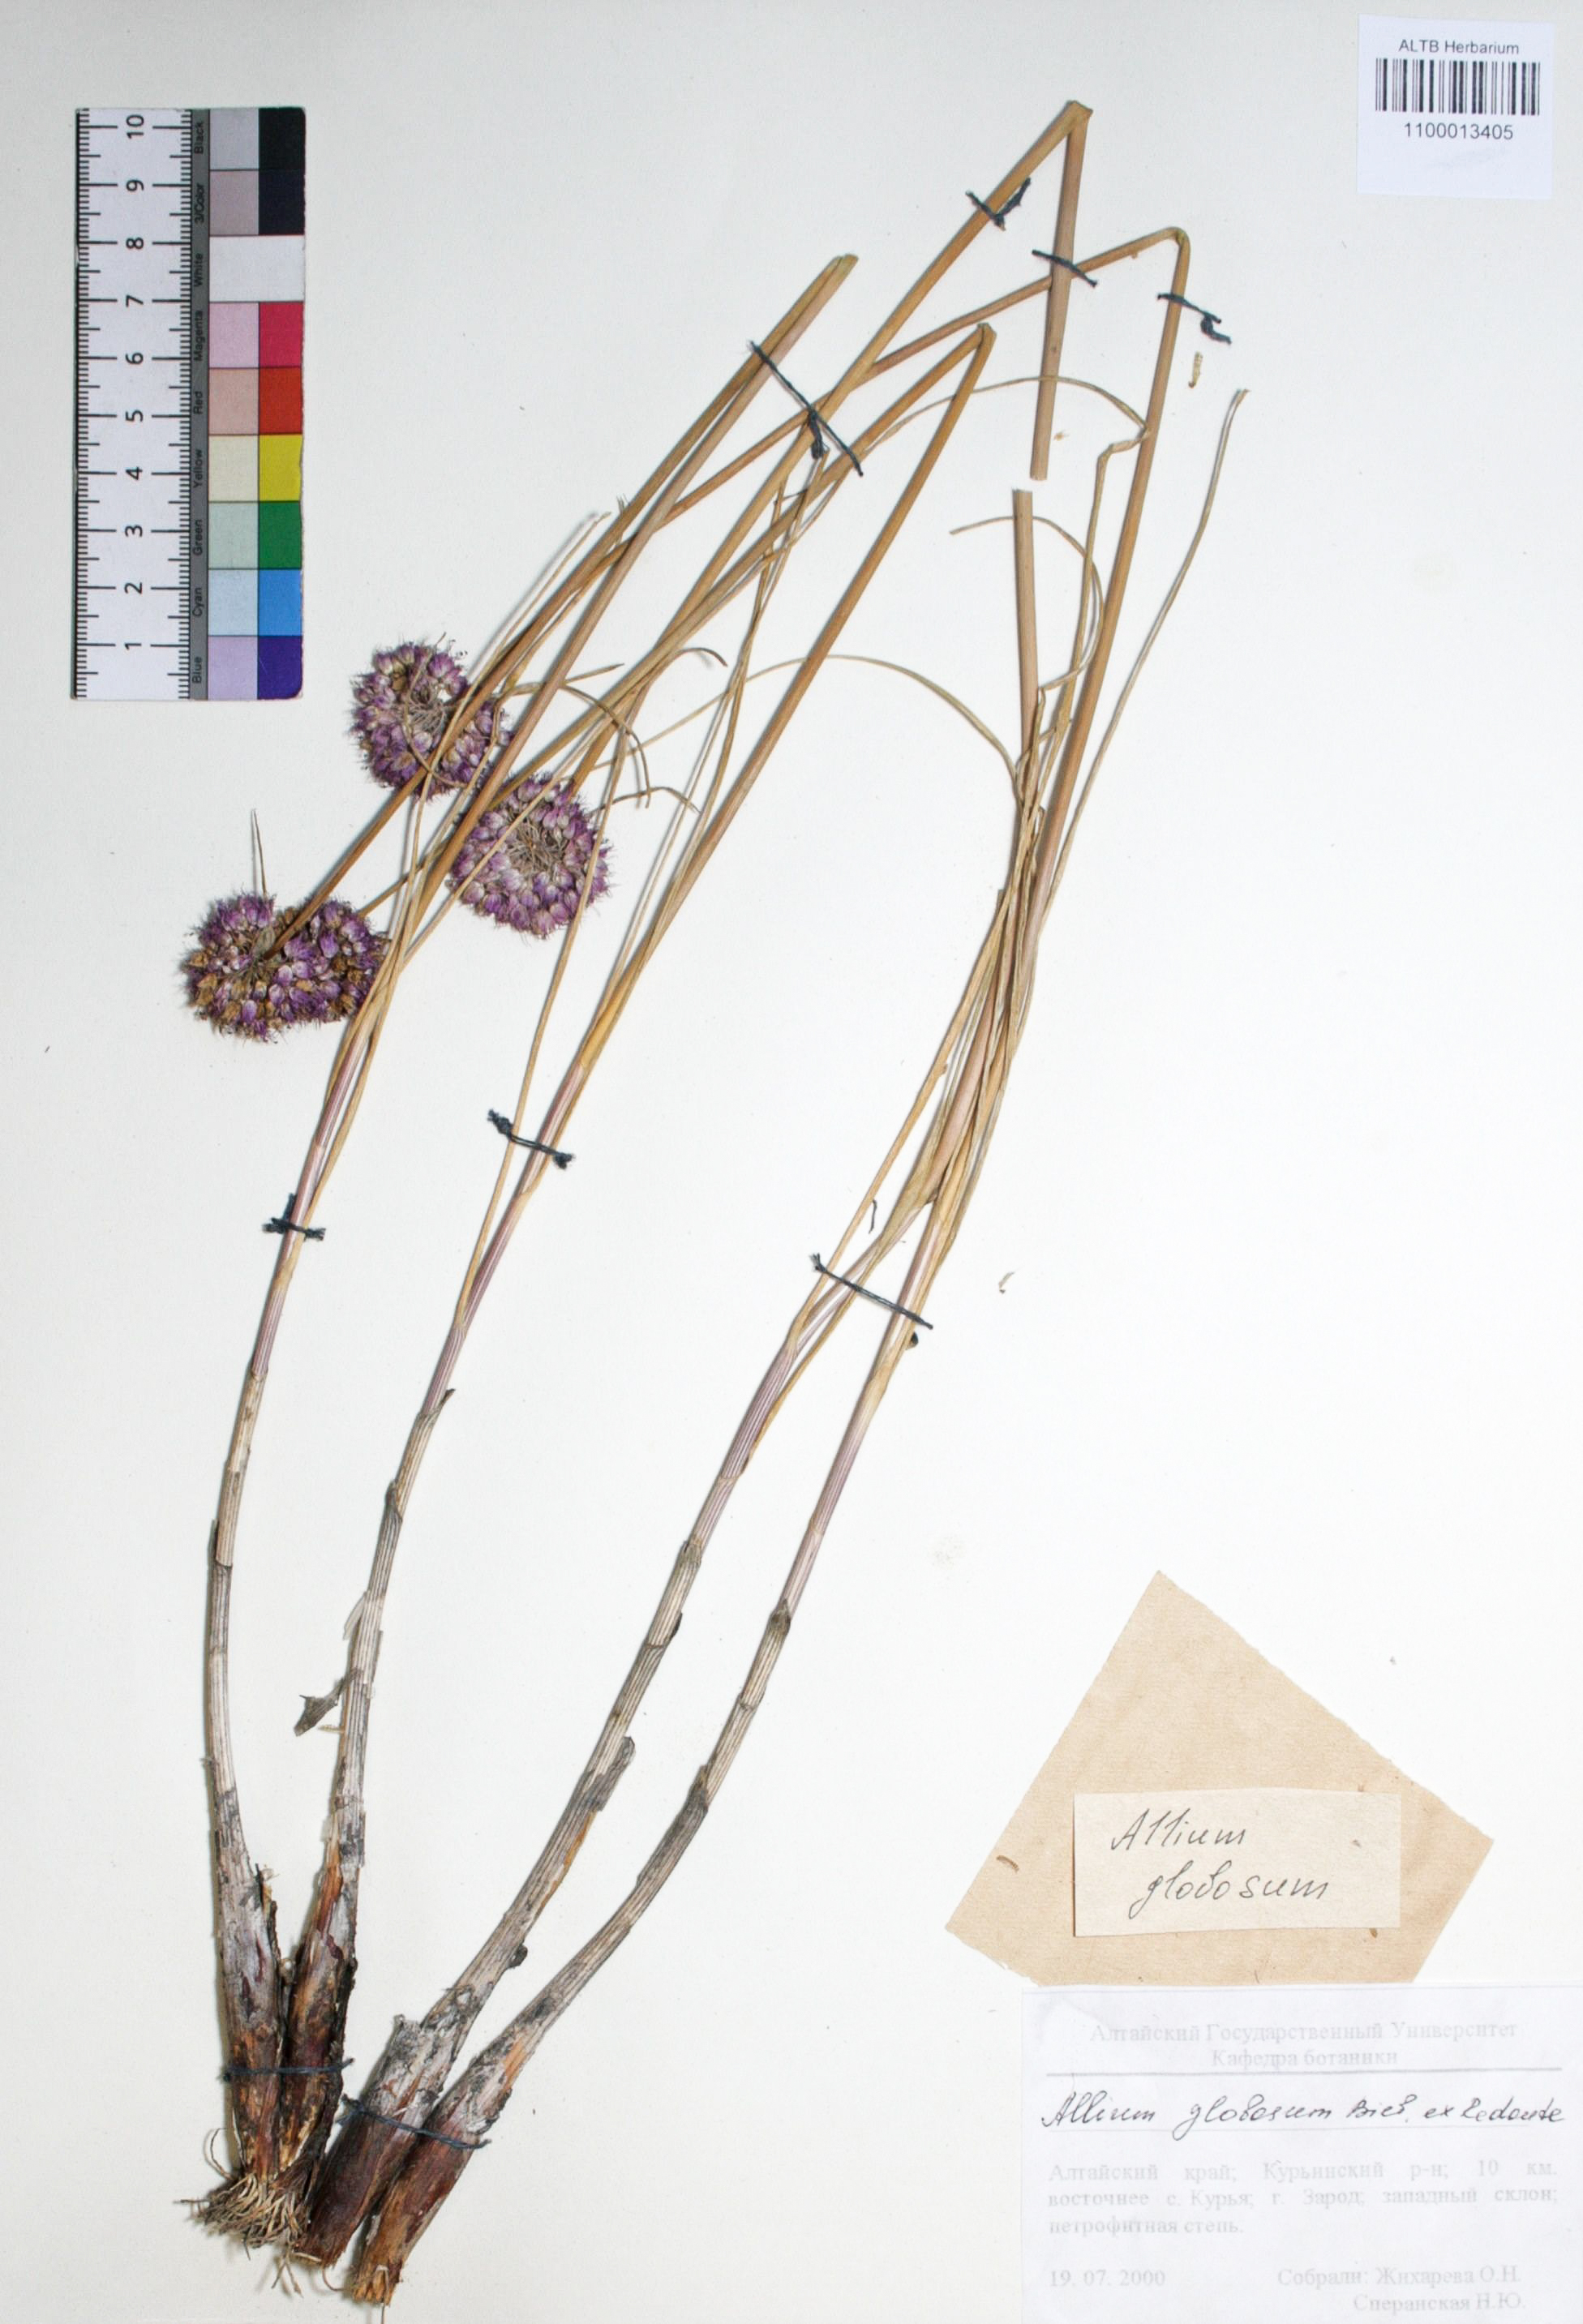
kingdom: Plantae
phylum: Tracheophyta
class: Liliopsida
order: Asparagales
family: Amaryllidaceae
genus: Allium
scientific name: Allium saxatile
